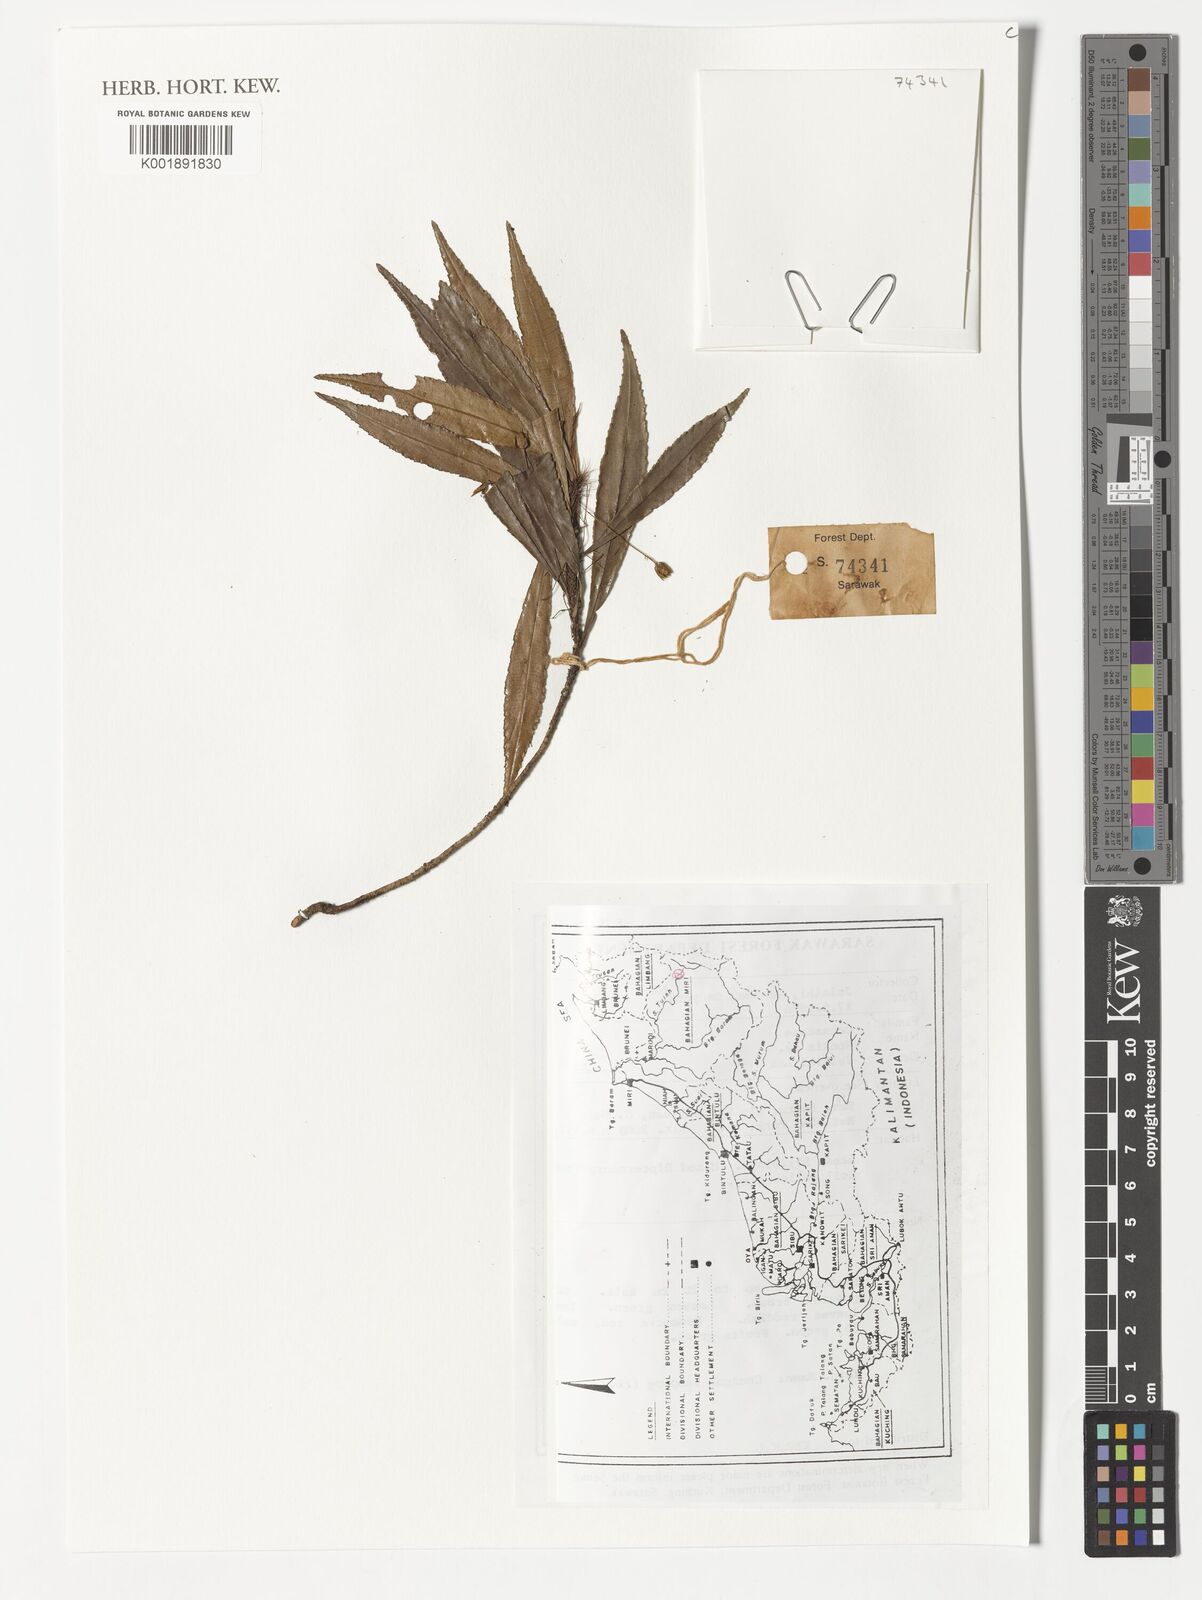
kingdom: Plantae
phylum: Tracheophyta
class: Magnoliopsida
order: Malpighiales
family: Ochnaceae
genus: Neckia
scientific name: Neckia
